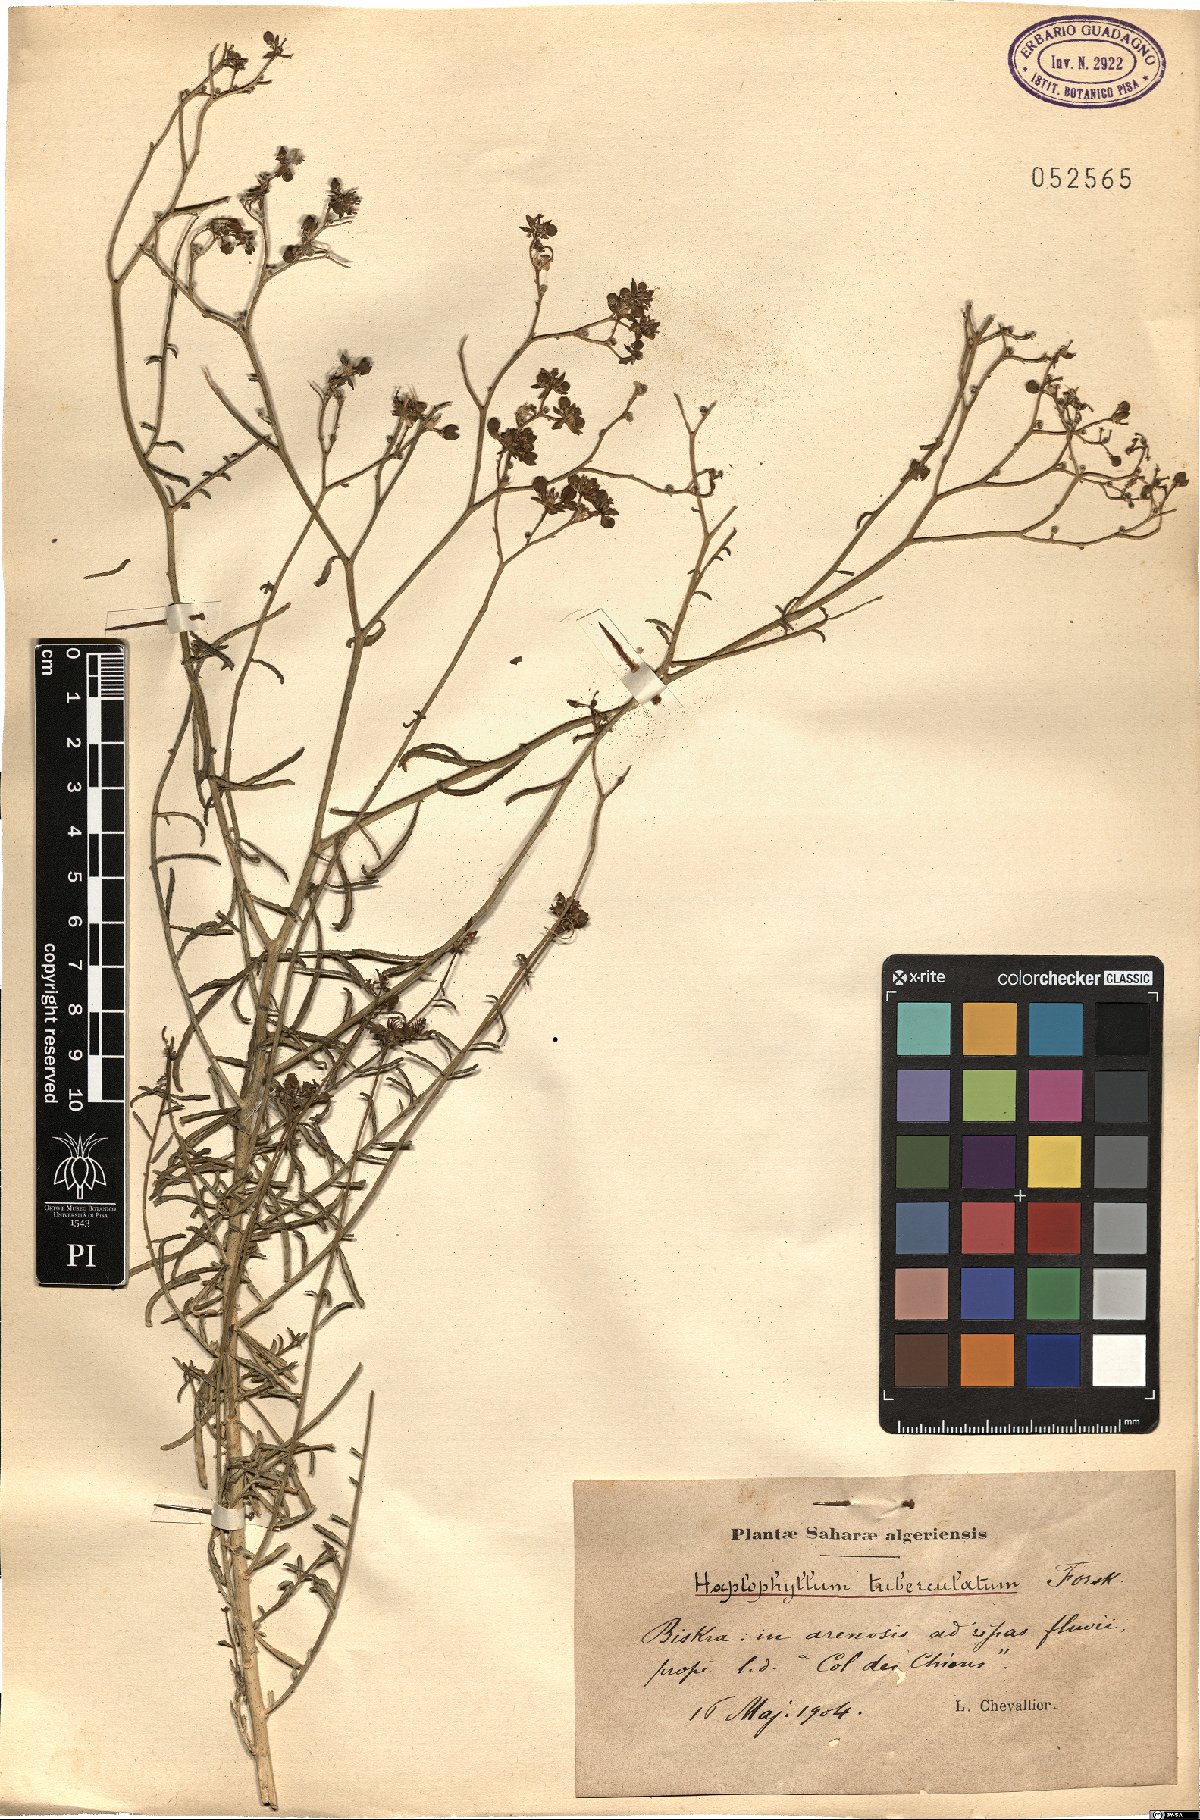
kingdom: Plantae
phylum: Tracheophyta
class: Magnoliopsida
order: Sapindales
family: Rutaceae
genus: Haplophyllum
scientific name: Haplophyllum tuberculatum
